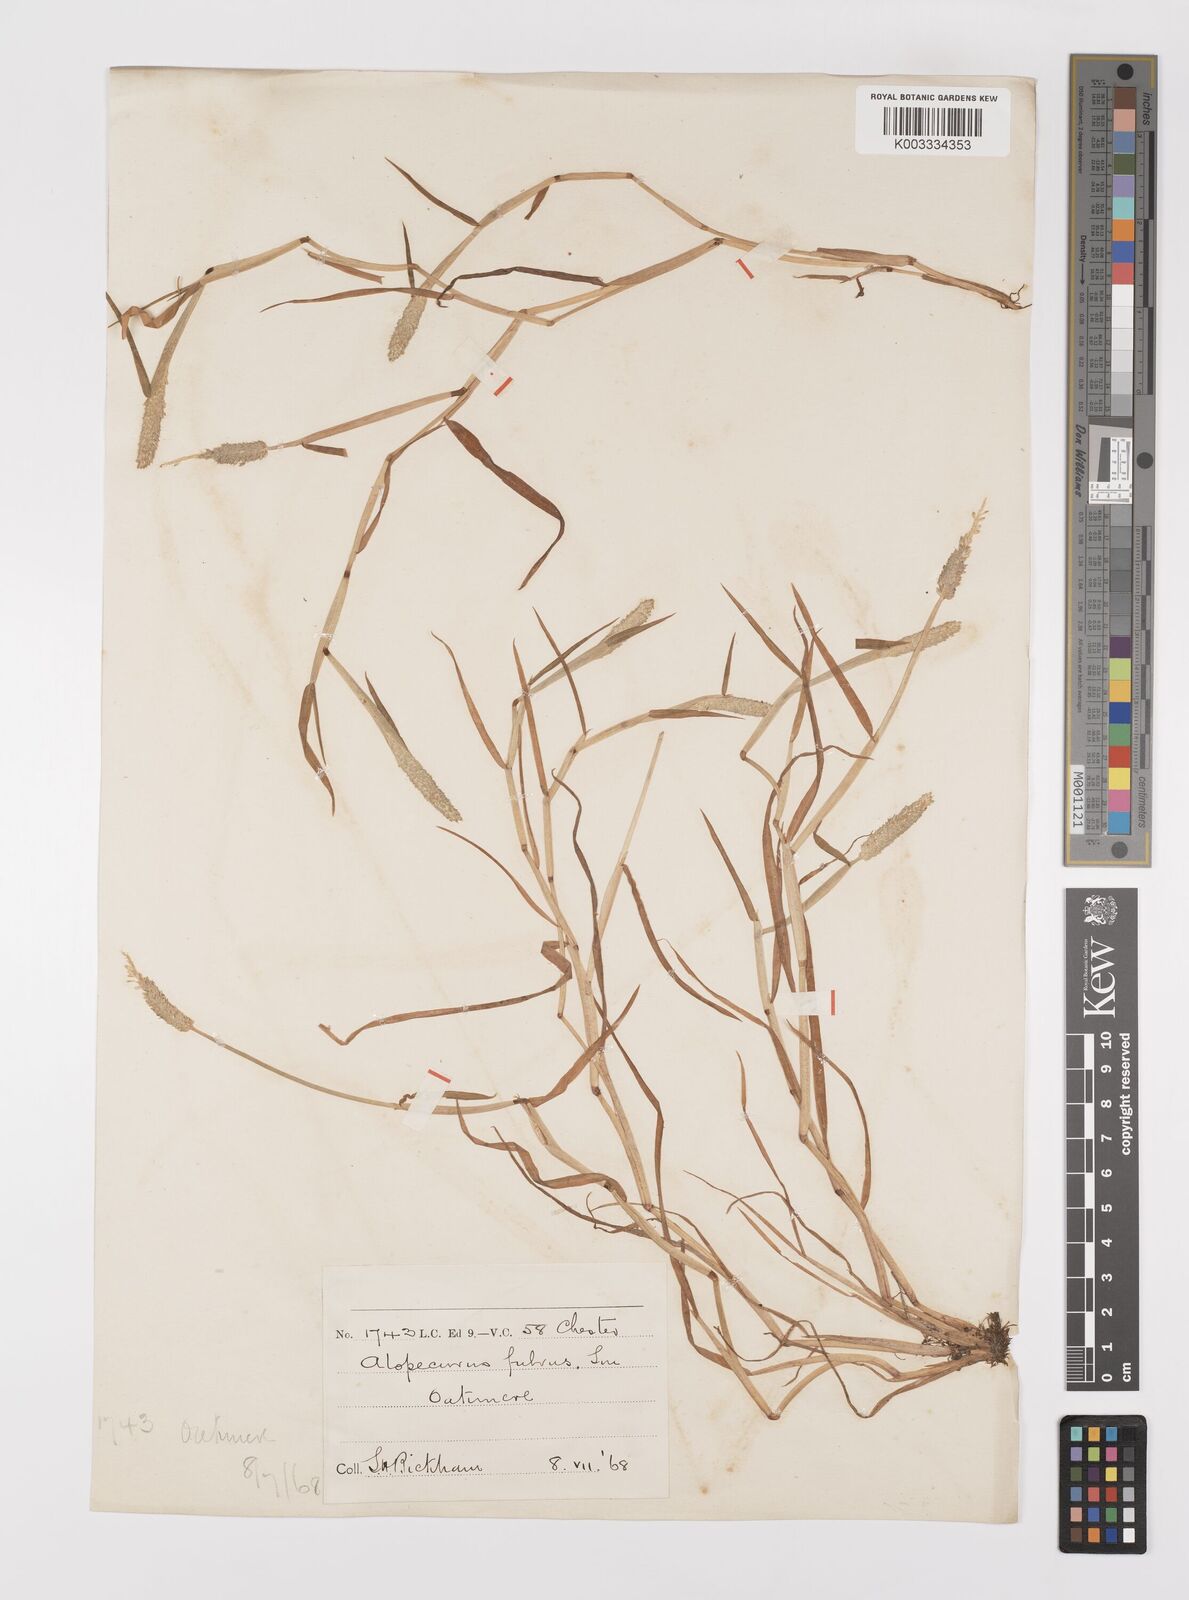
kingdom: Plantae
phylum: Tracheophyta
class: Liliopsida
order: Poales
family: Poaceae
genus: Alopecurus
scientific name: Alopecurus aequalis
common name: Orange foxtail
